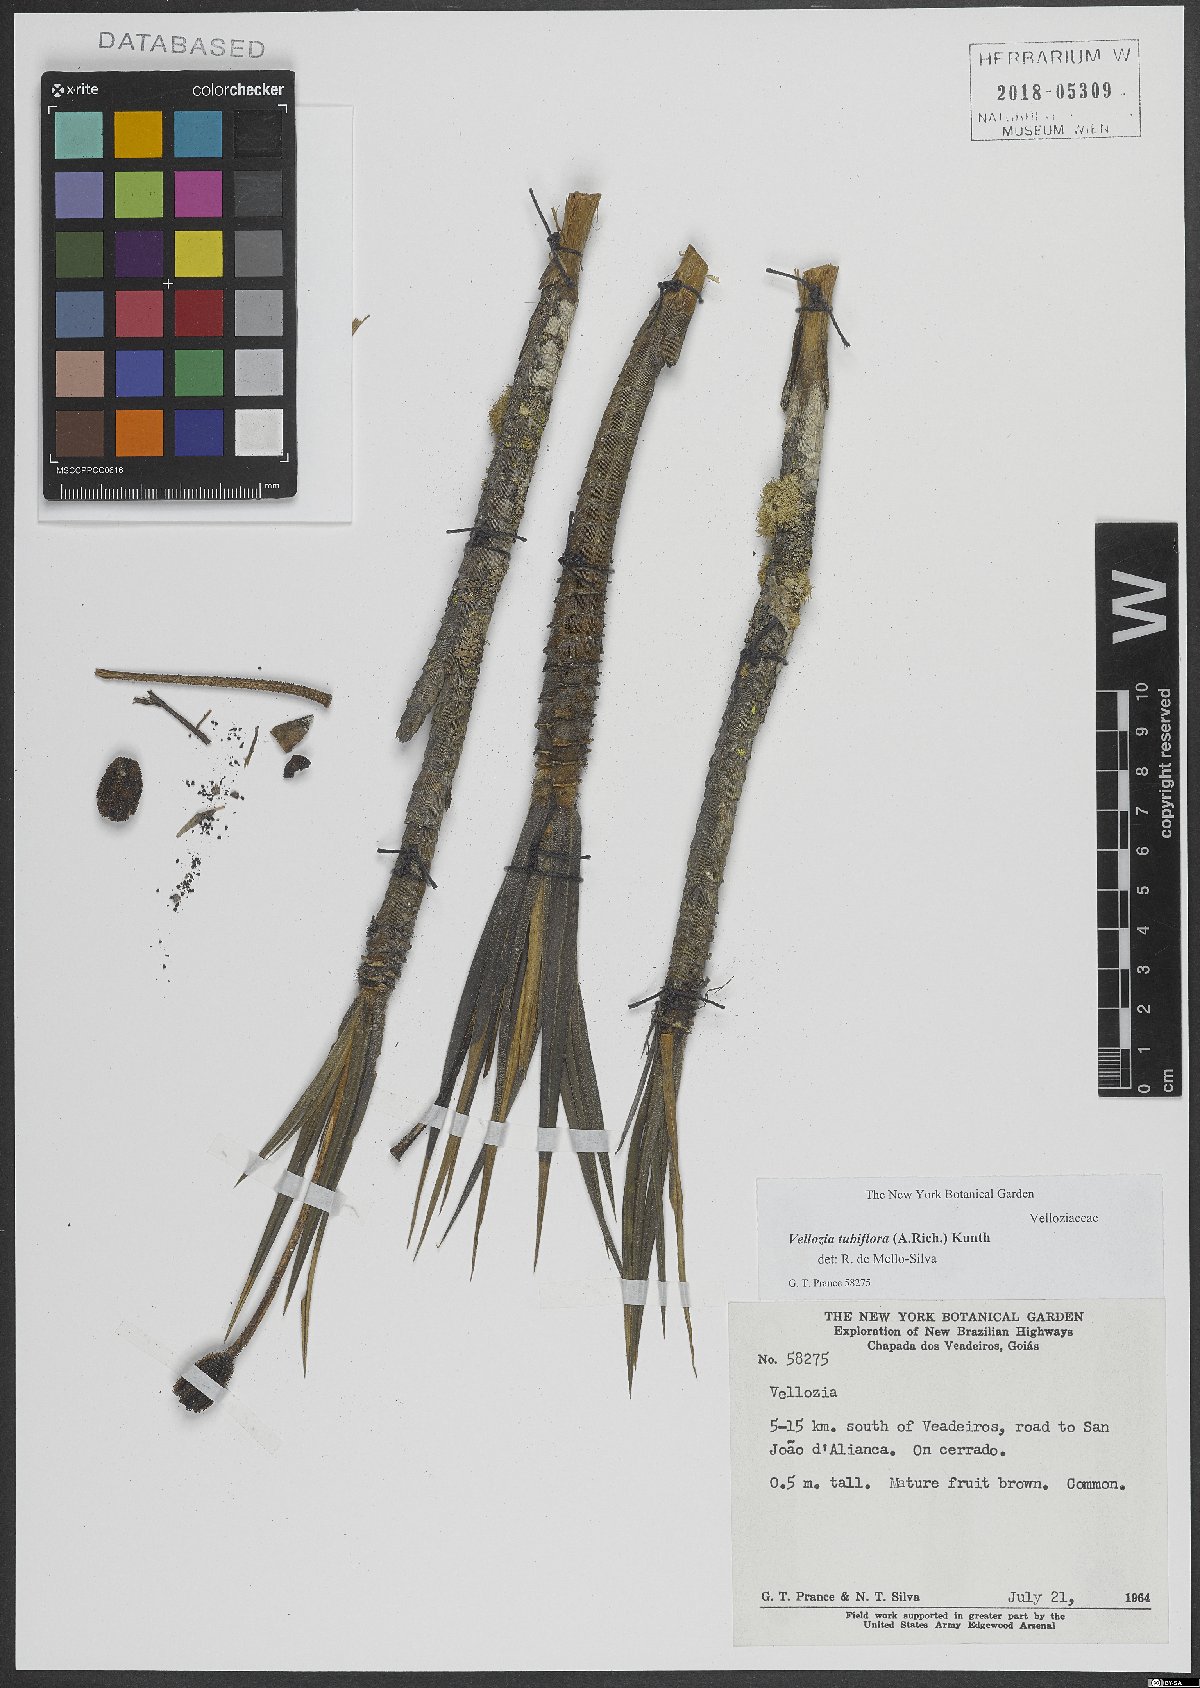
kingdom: Plantae
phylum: Tracheophyta
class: Liliopsida
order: Pandanales
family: Velloziaceae
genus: Vellozia
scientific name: Vellozia tubiflora
